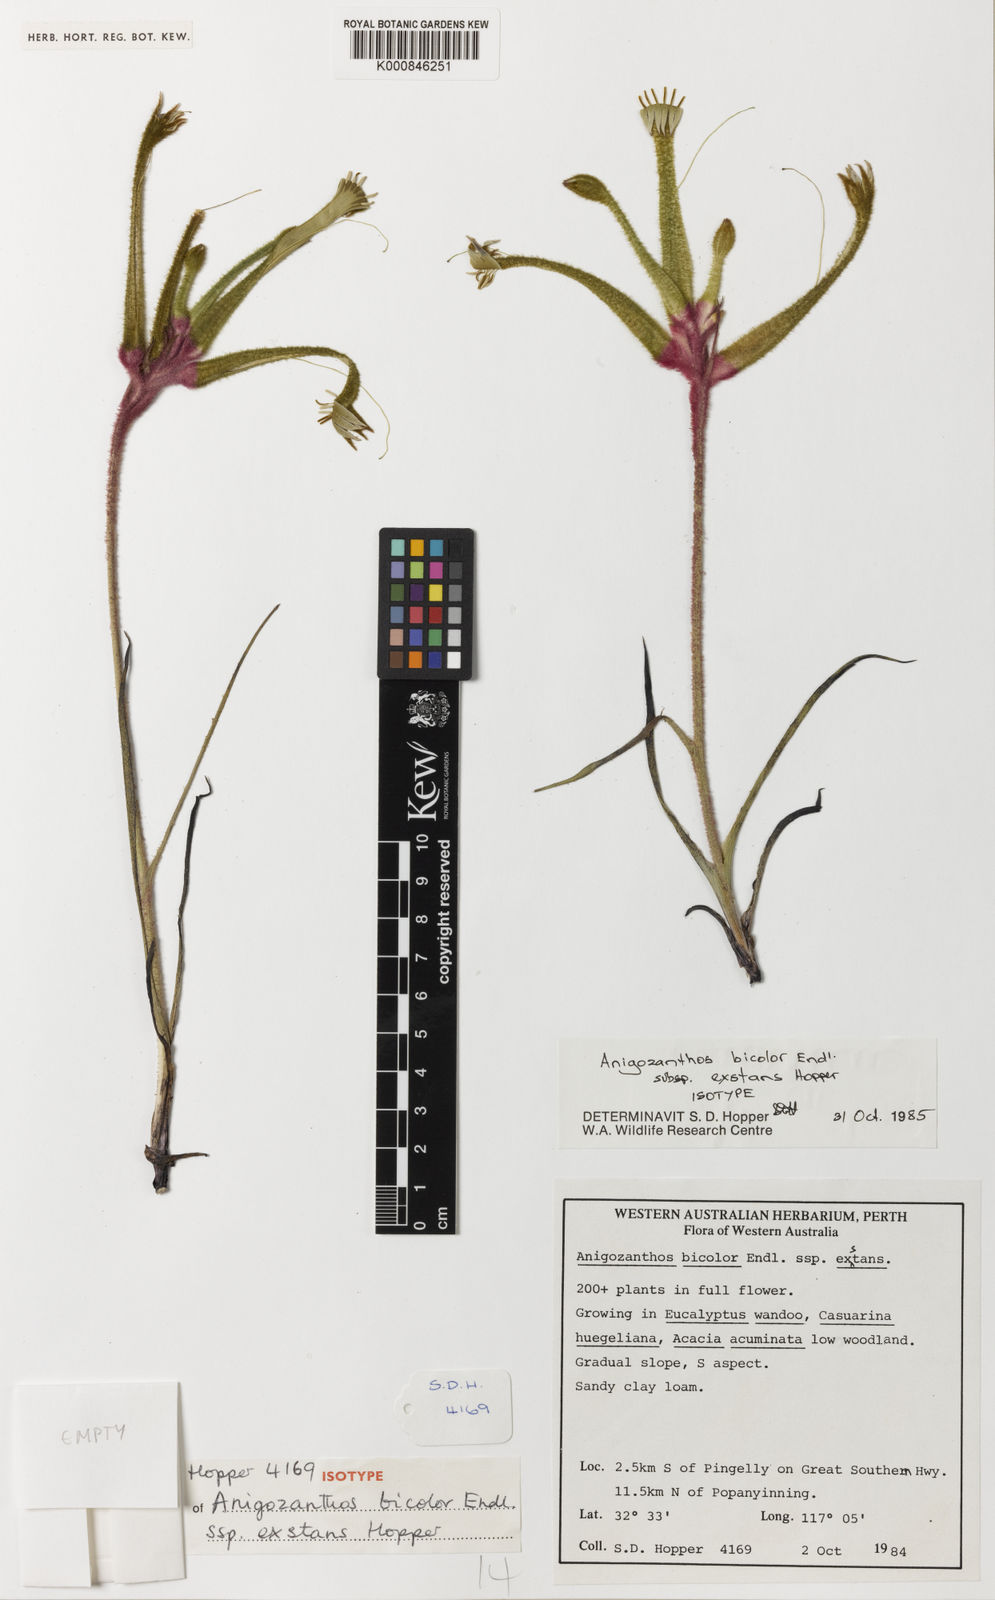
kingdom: Plantae
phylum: Tracheophyta
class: Liliopsida
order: Commelinales
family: Haemodoraceae
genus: Anigozanthos
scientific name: Anigozanthos bicolor
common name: Little kangaroo-paw
